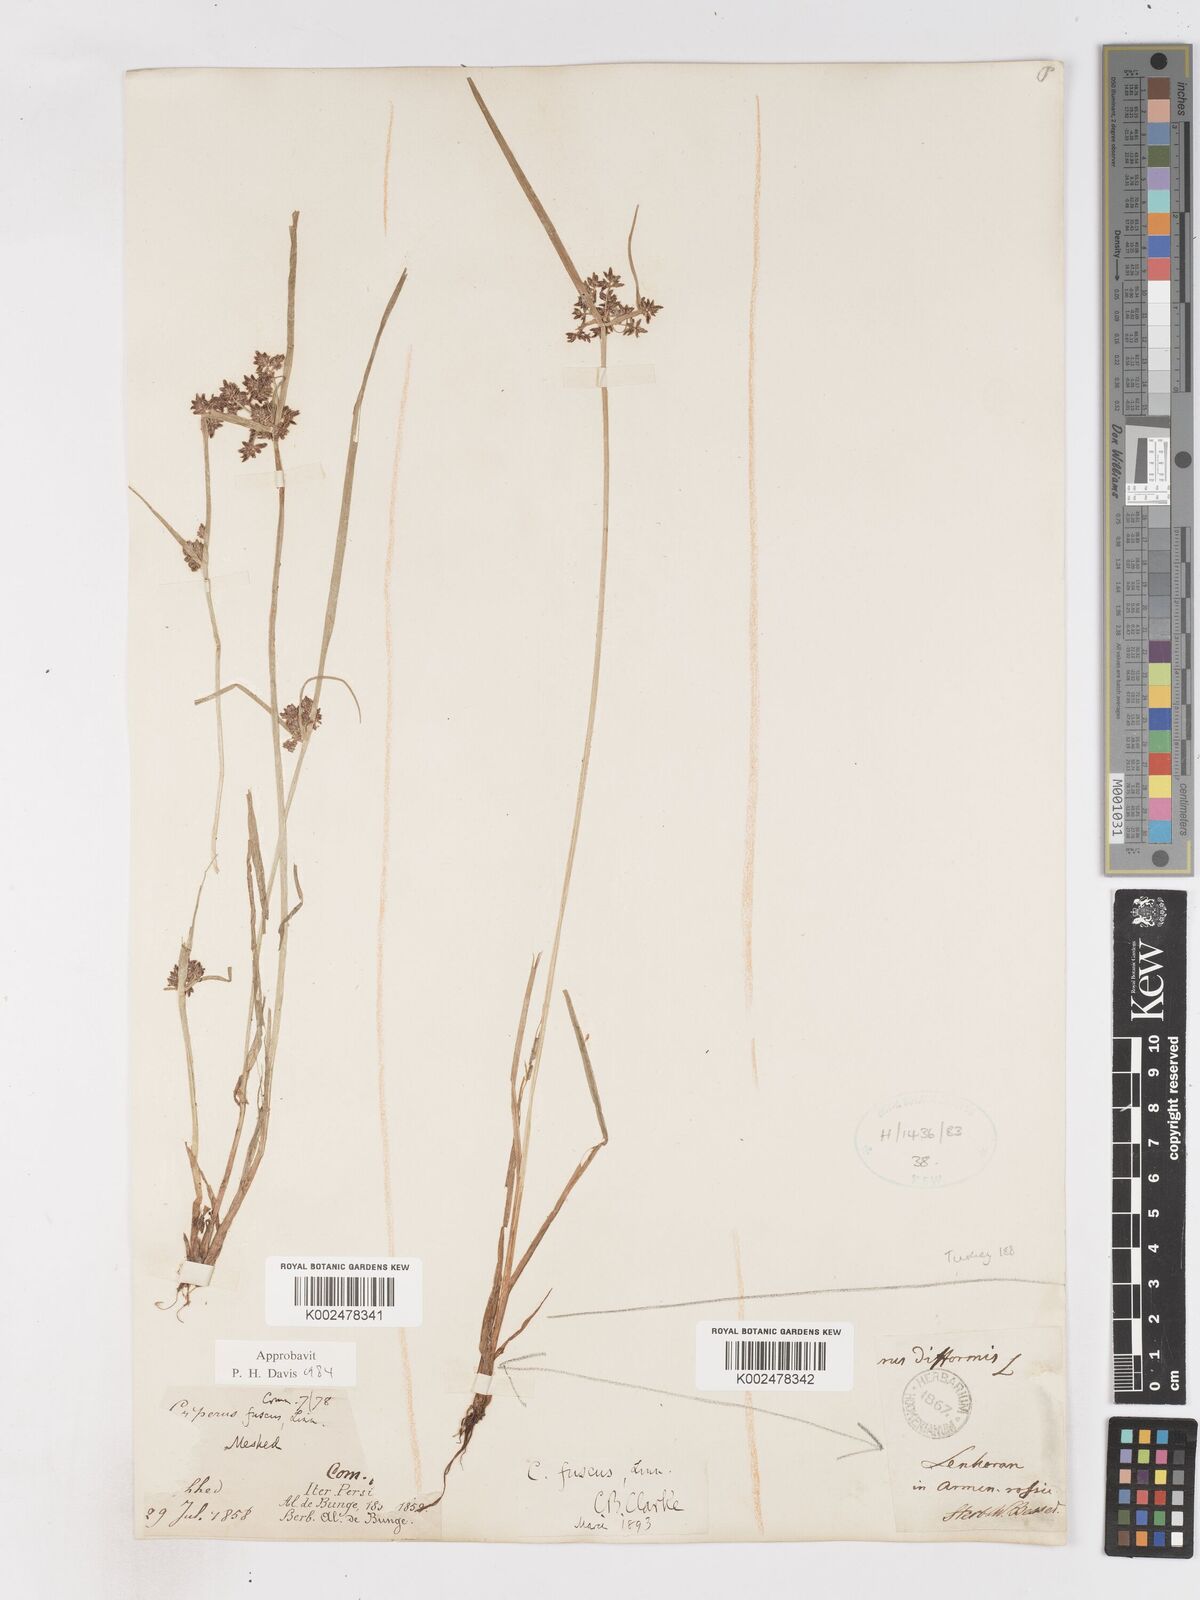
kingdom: Plantae
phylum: Tracheophyta
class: Liliopsida
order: Poales
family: Cyperaceae
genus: Cyperus
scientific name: Cyperus fuscus
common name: Brown galingale
